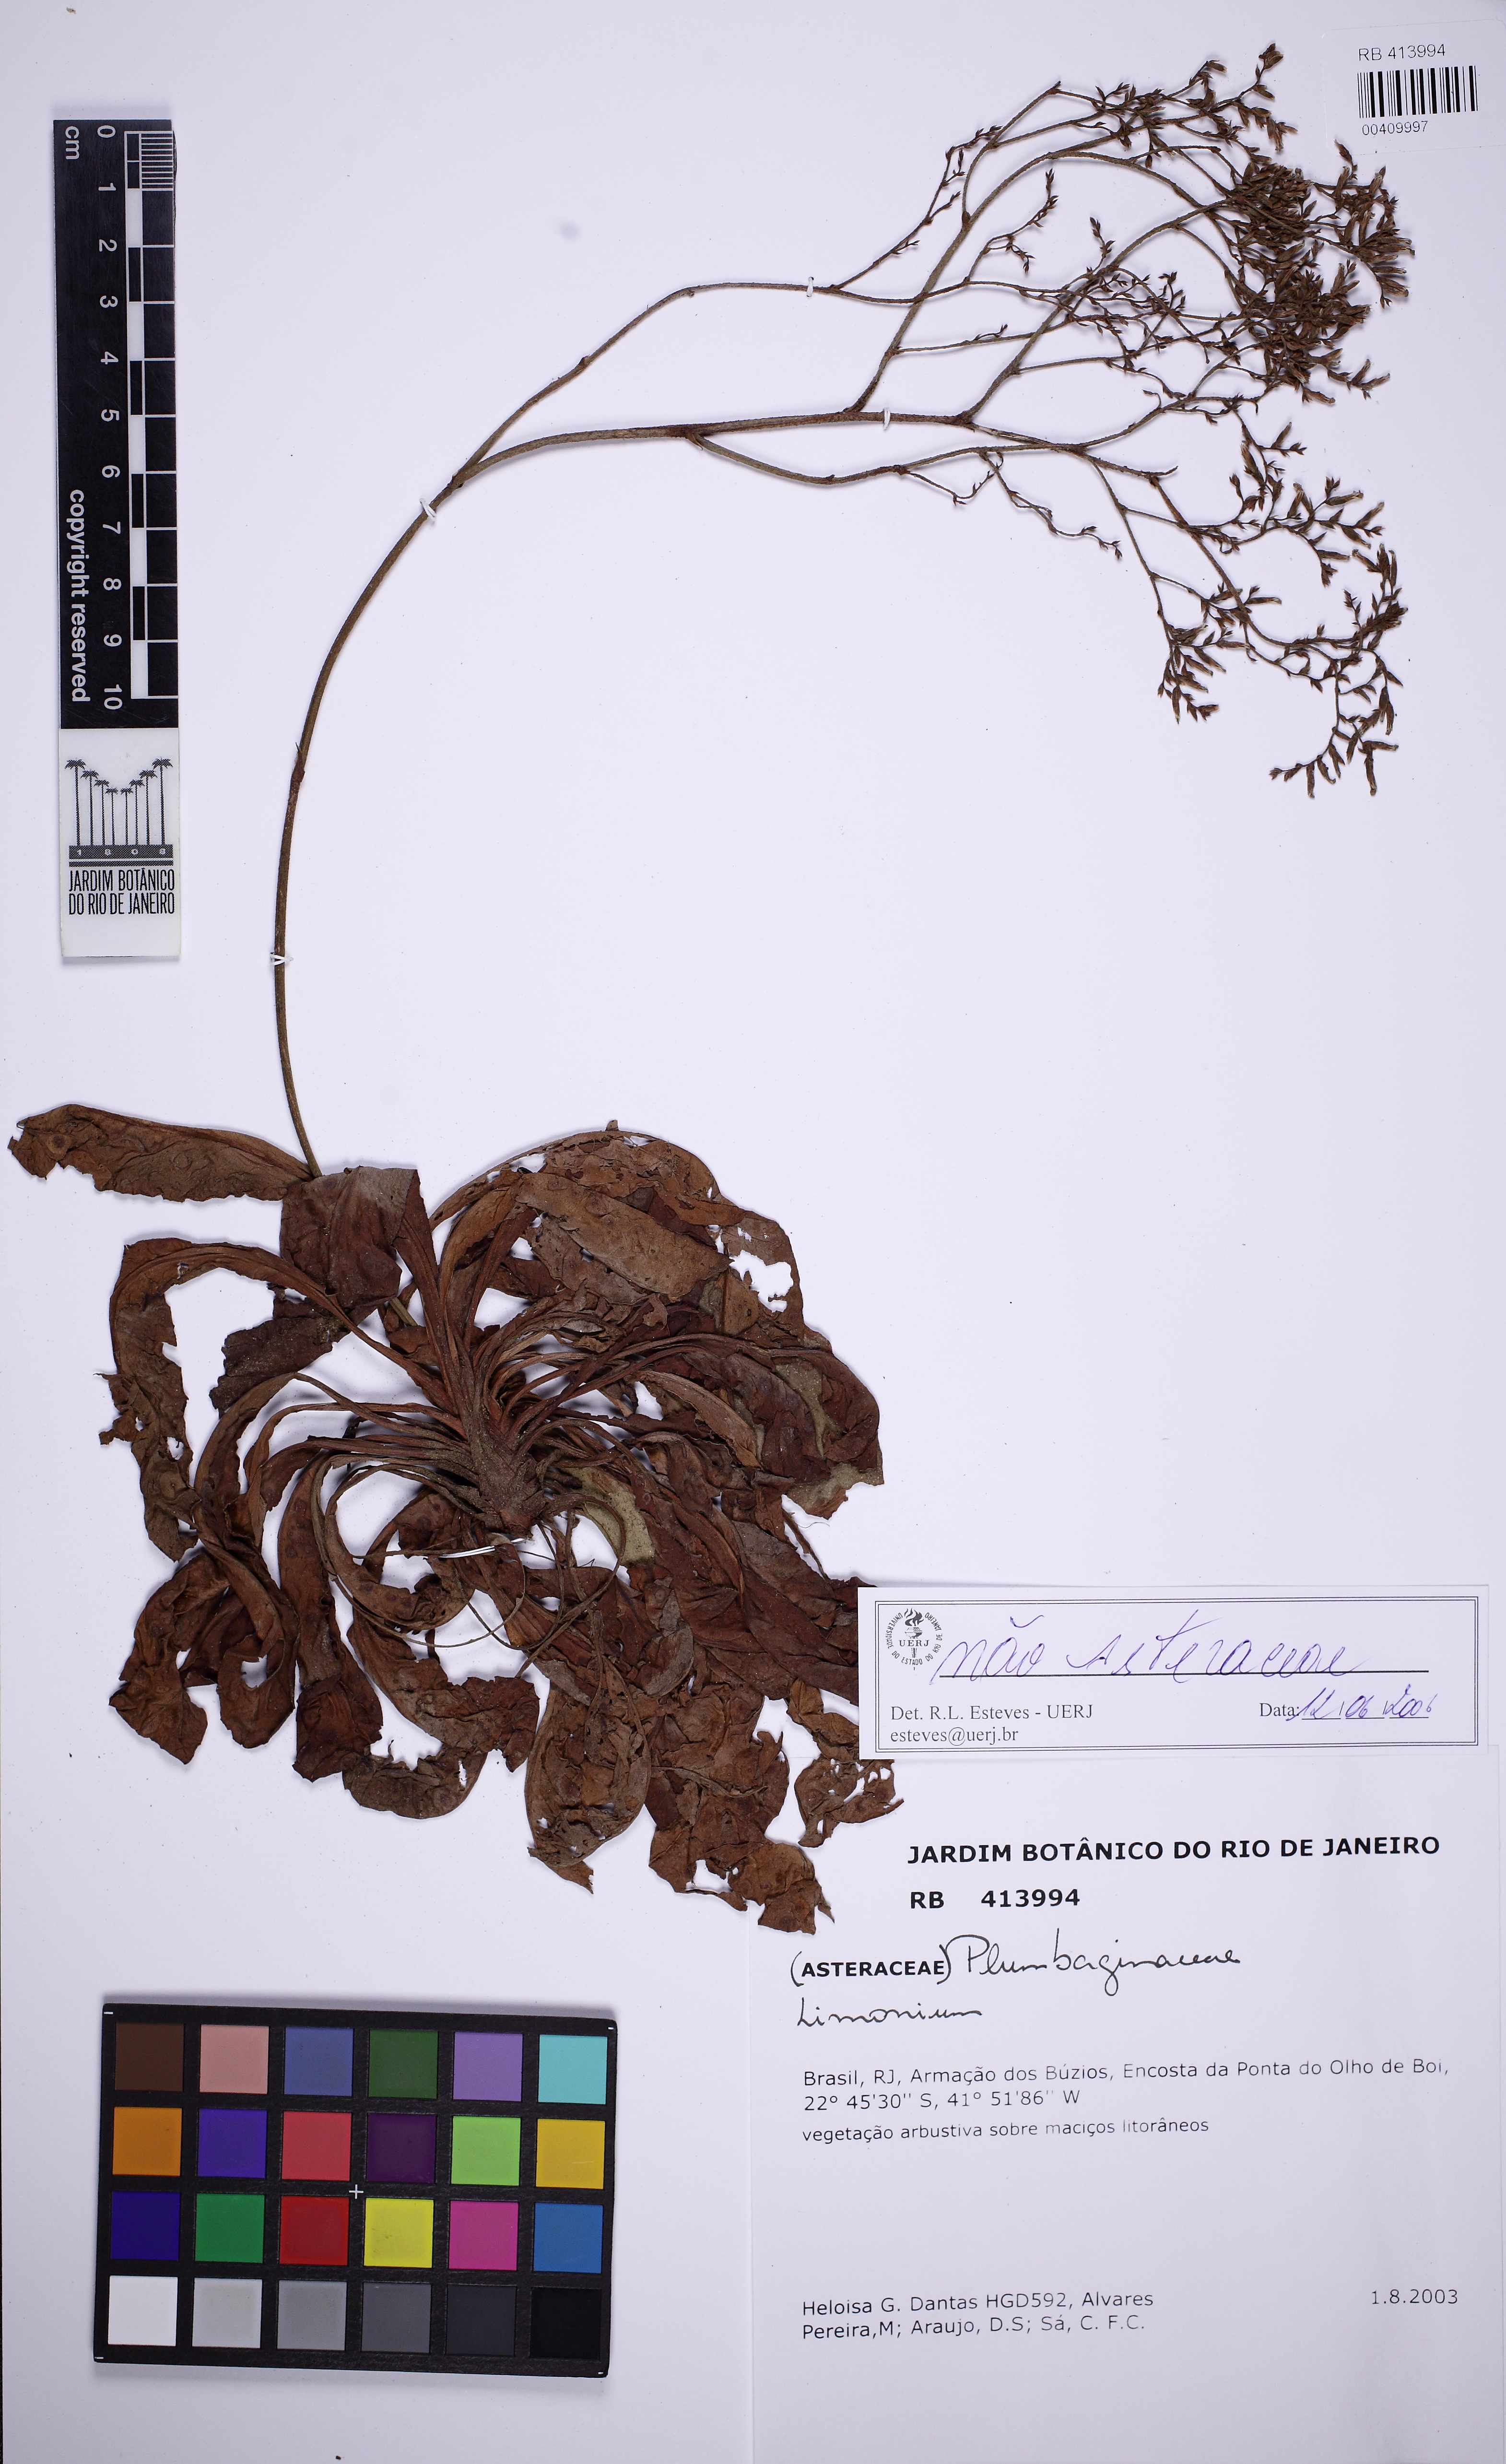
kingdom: Plantae
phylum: Tracheophyta
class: Magnoliopsida
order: Caryophyllales
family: Plumbaginaceae
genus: Limonium
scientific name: Limonium brasiliense
